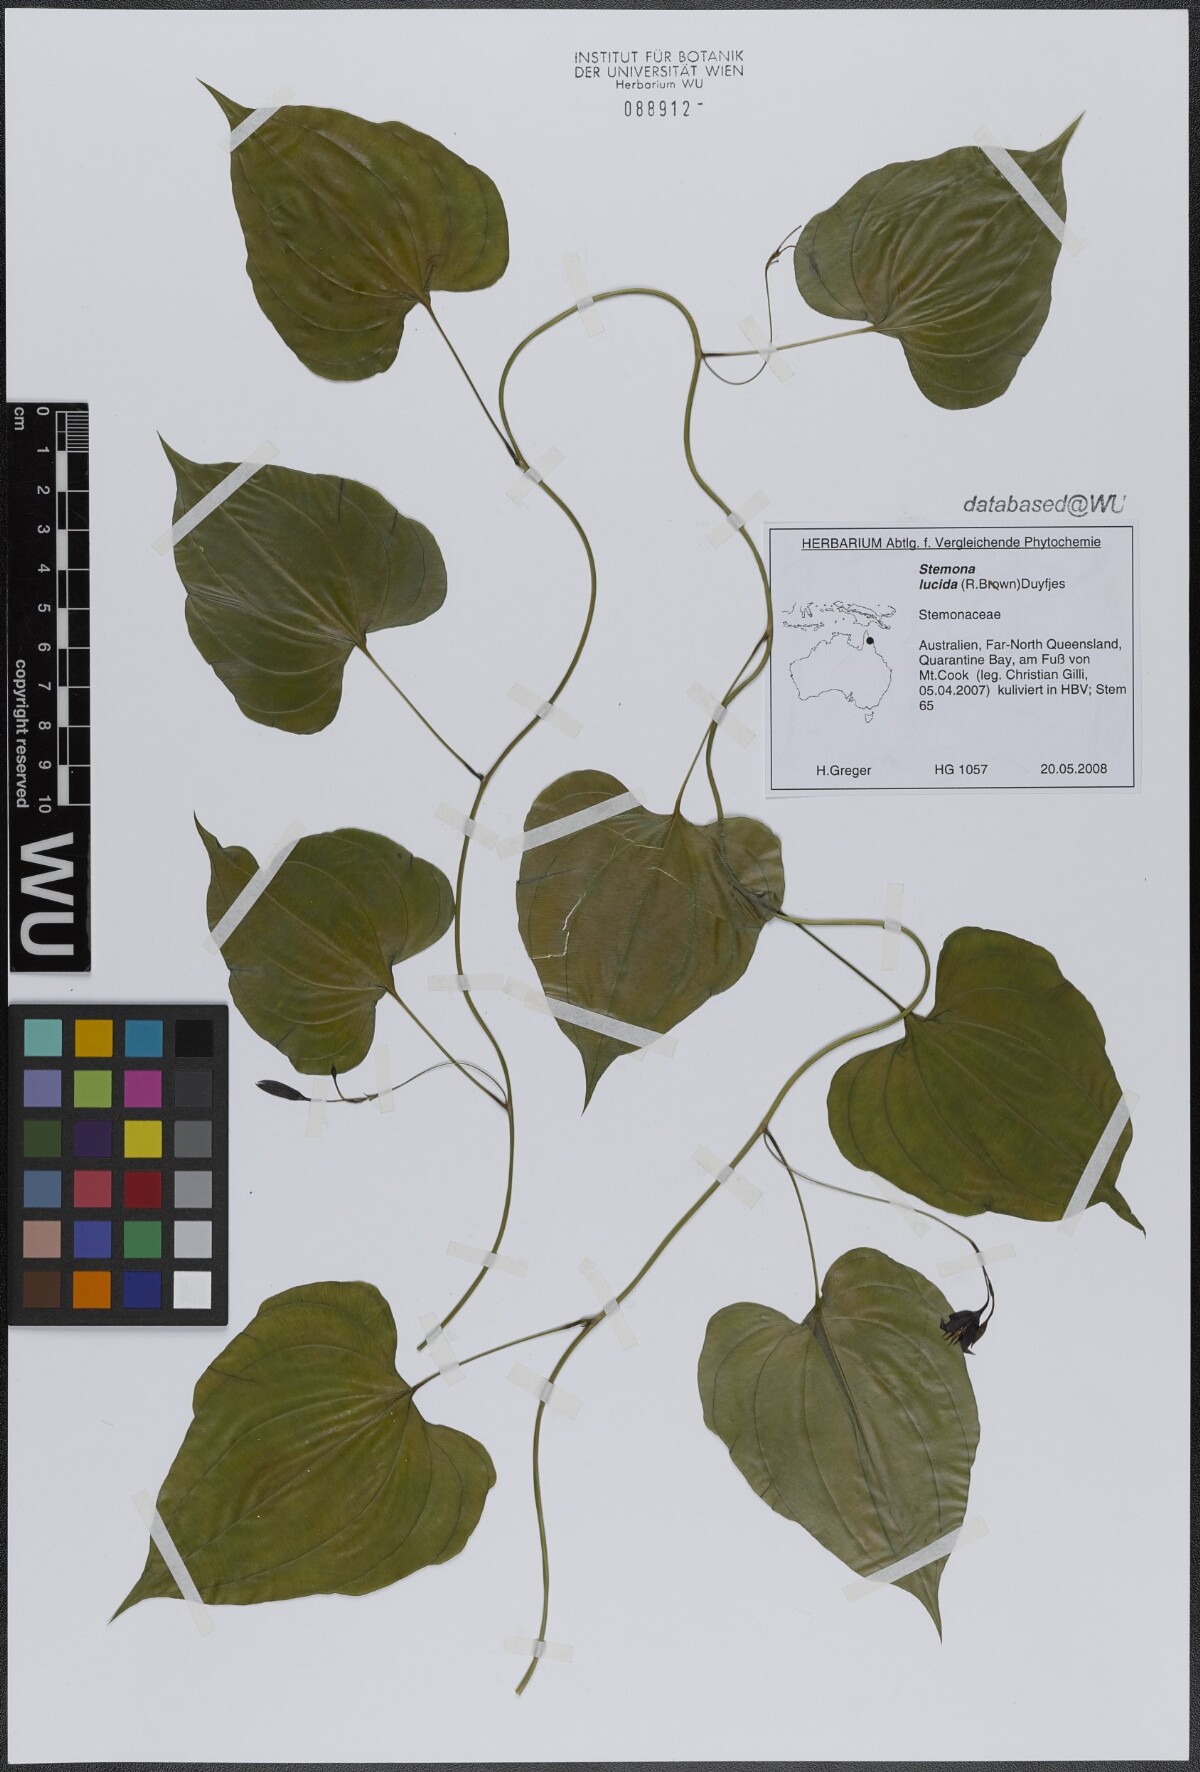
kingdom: Plantae
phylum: Tracheophyta
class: Liliopsida
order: Pandanales
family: Stemonaceae
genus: Stemona
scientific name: Stemona lucida
